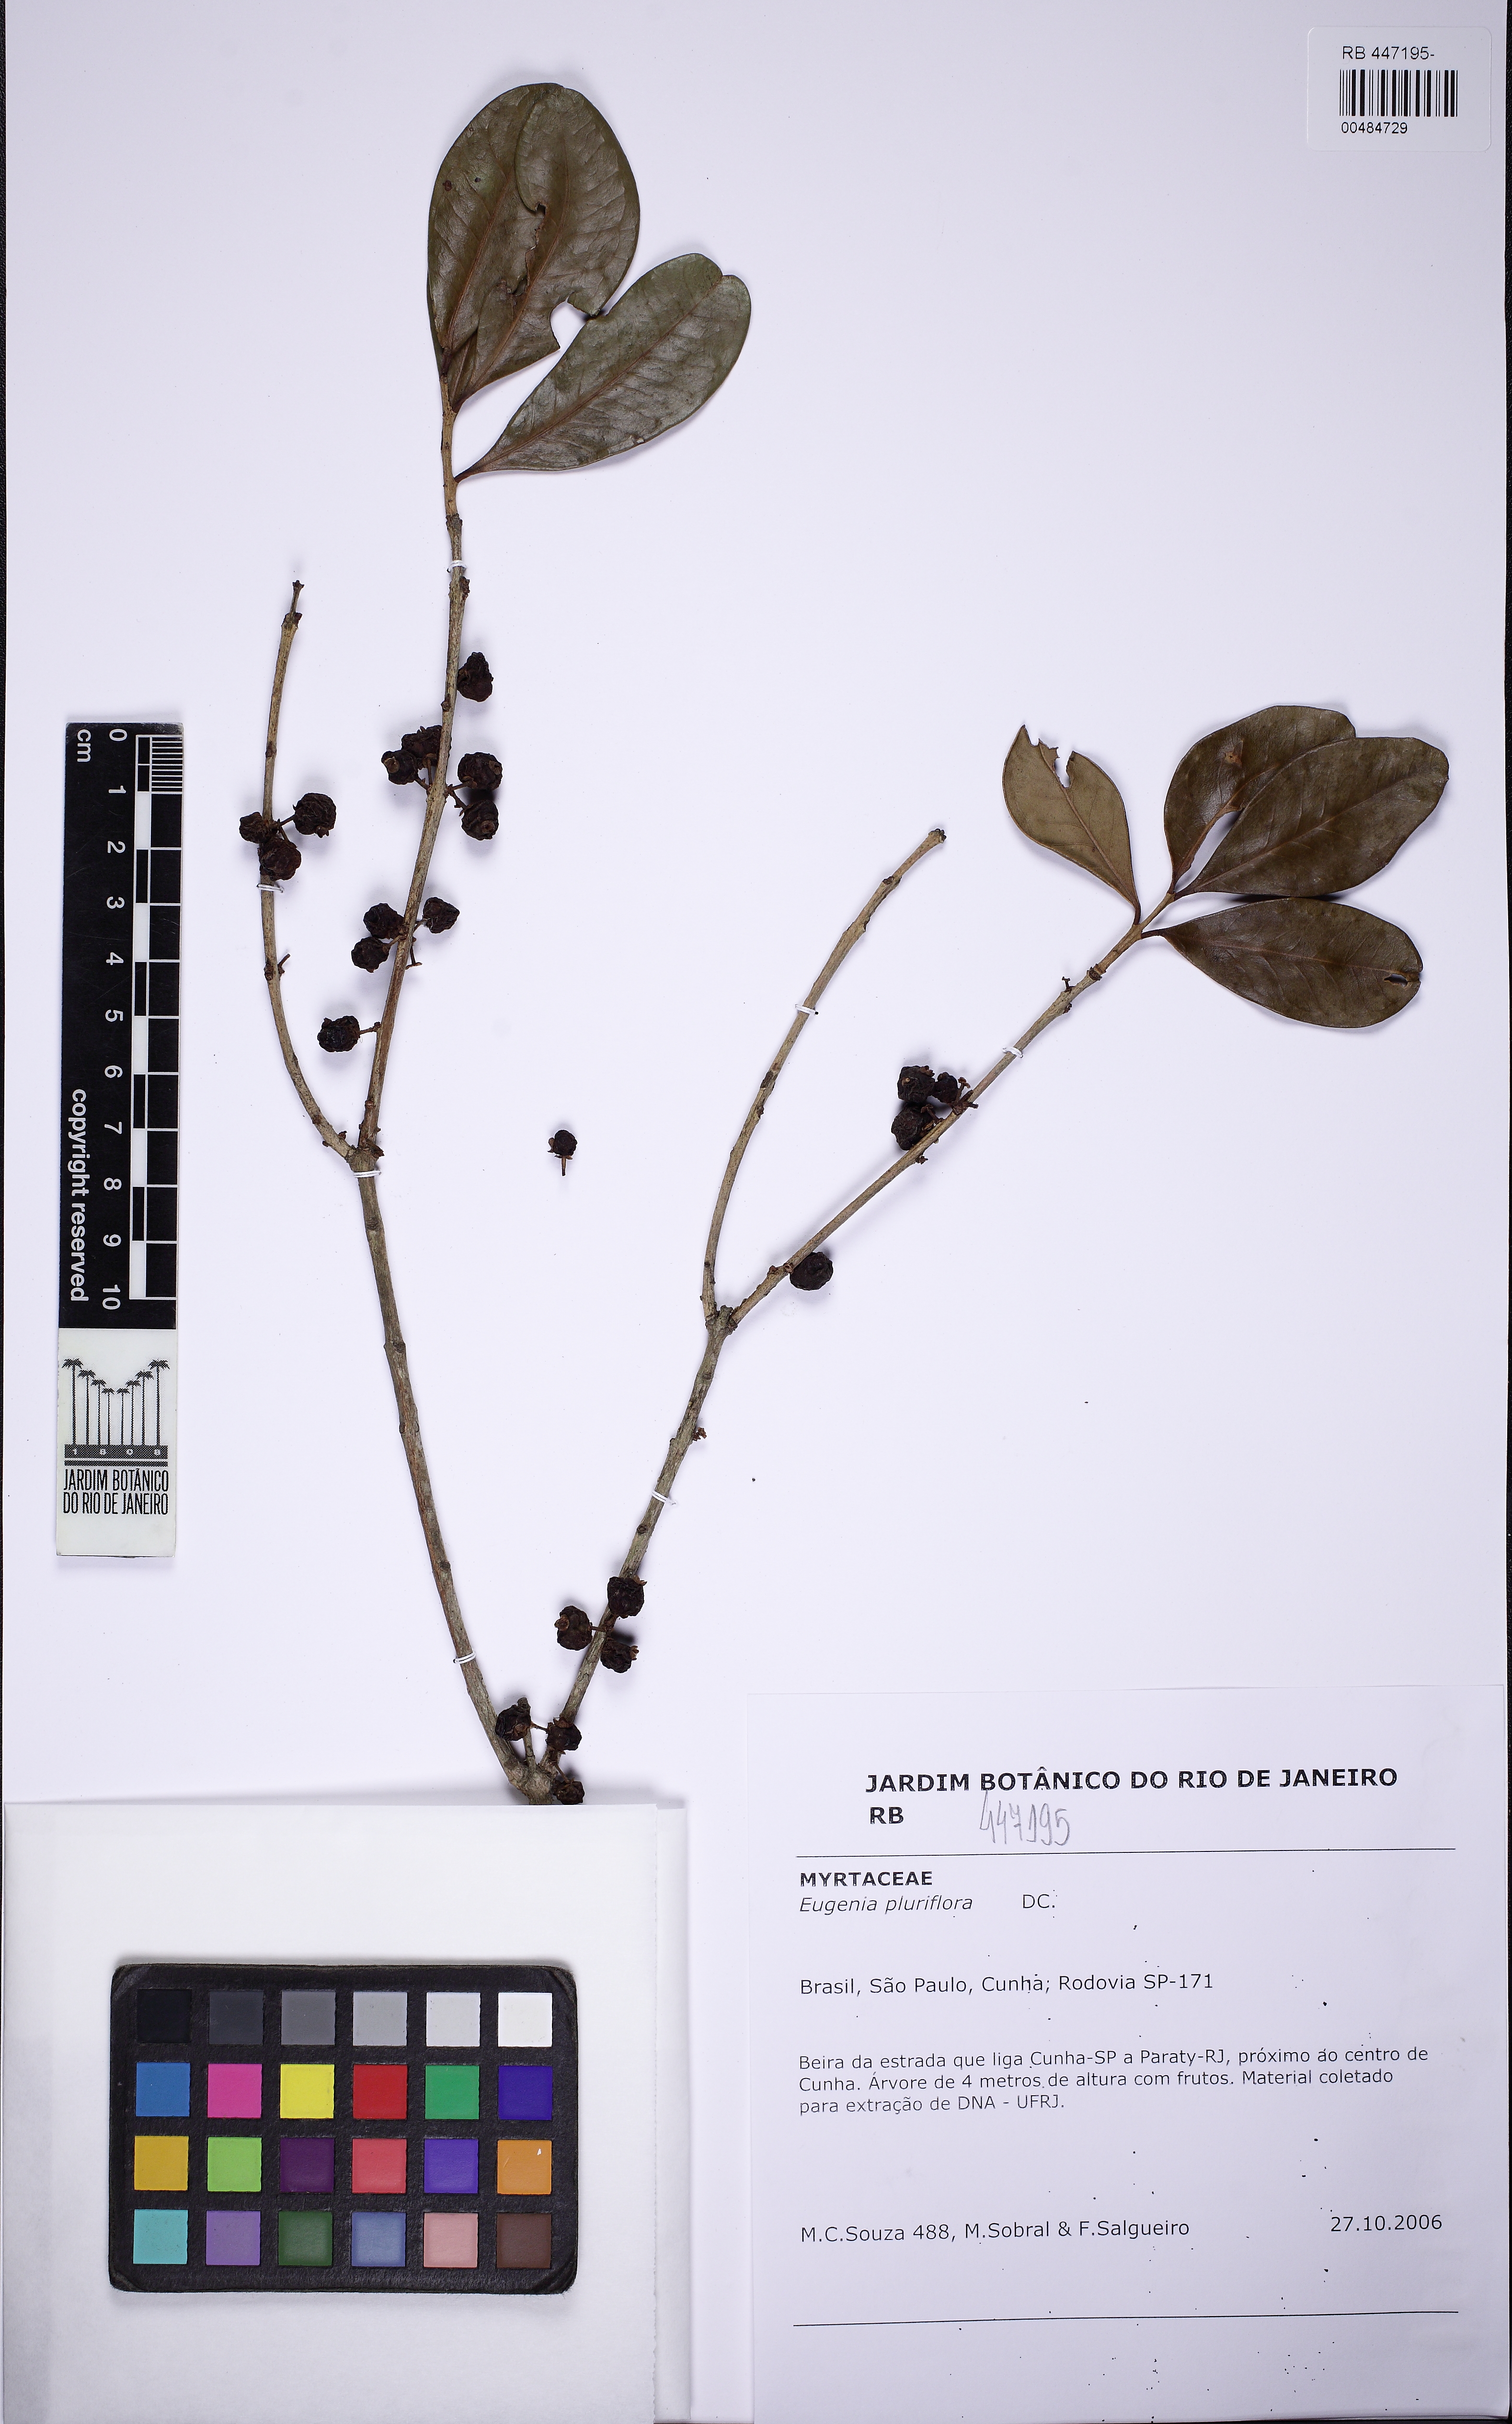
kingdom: Plantae
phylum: Tracheophyta
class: Magnoliopsida
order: Myrtales
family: Myrtaceae
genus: Eugenia
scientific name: Eugenia pluriflora
